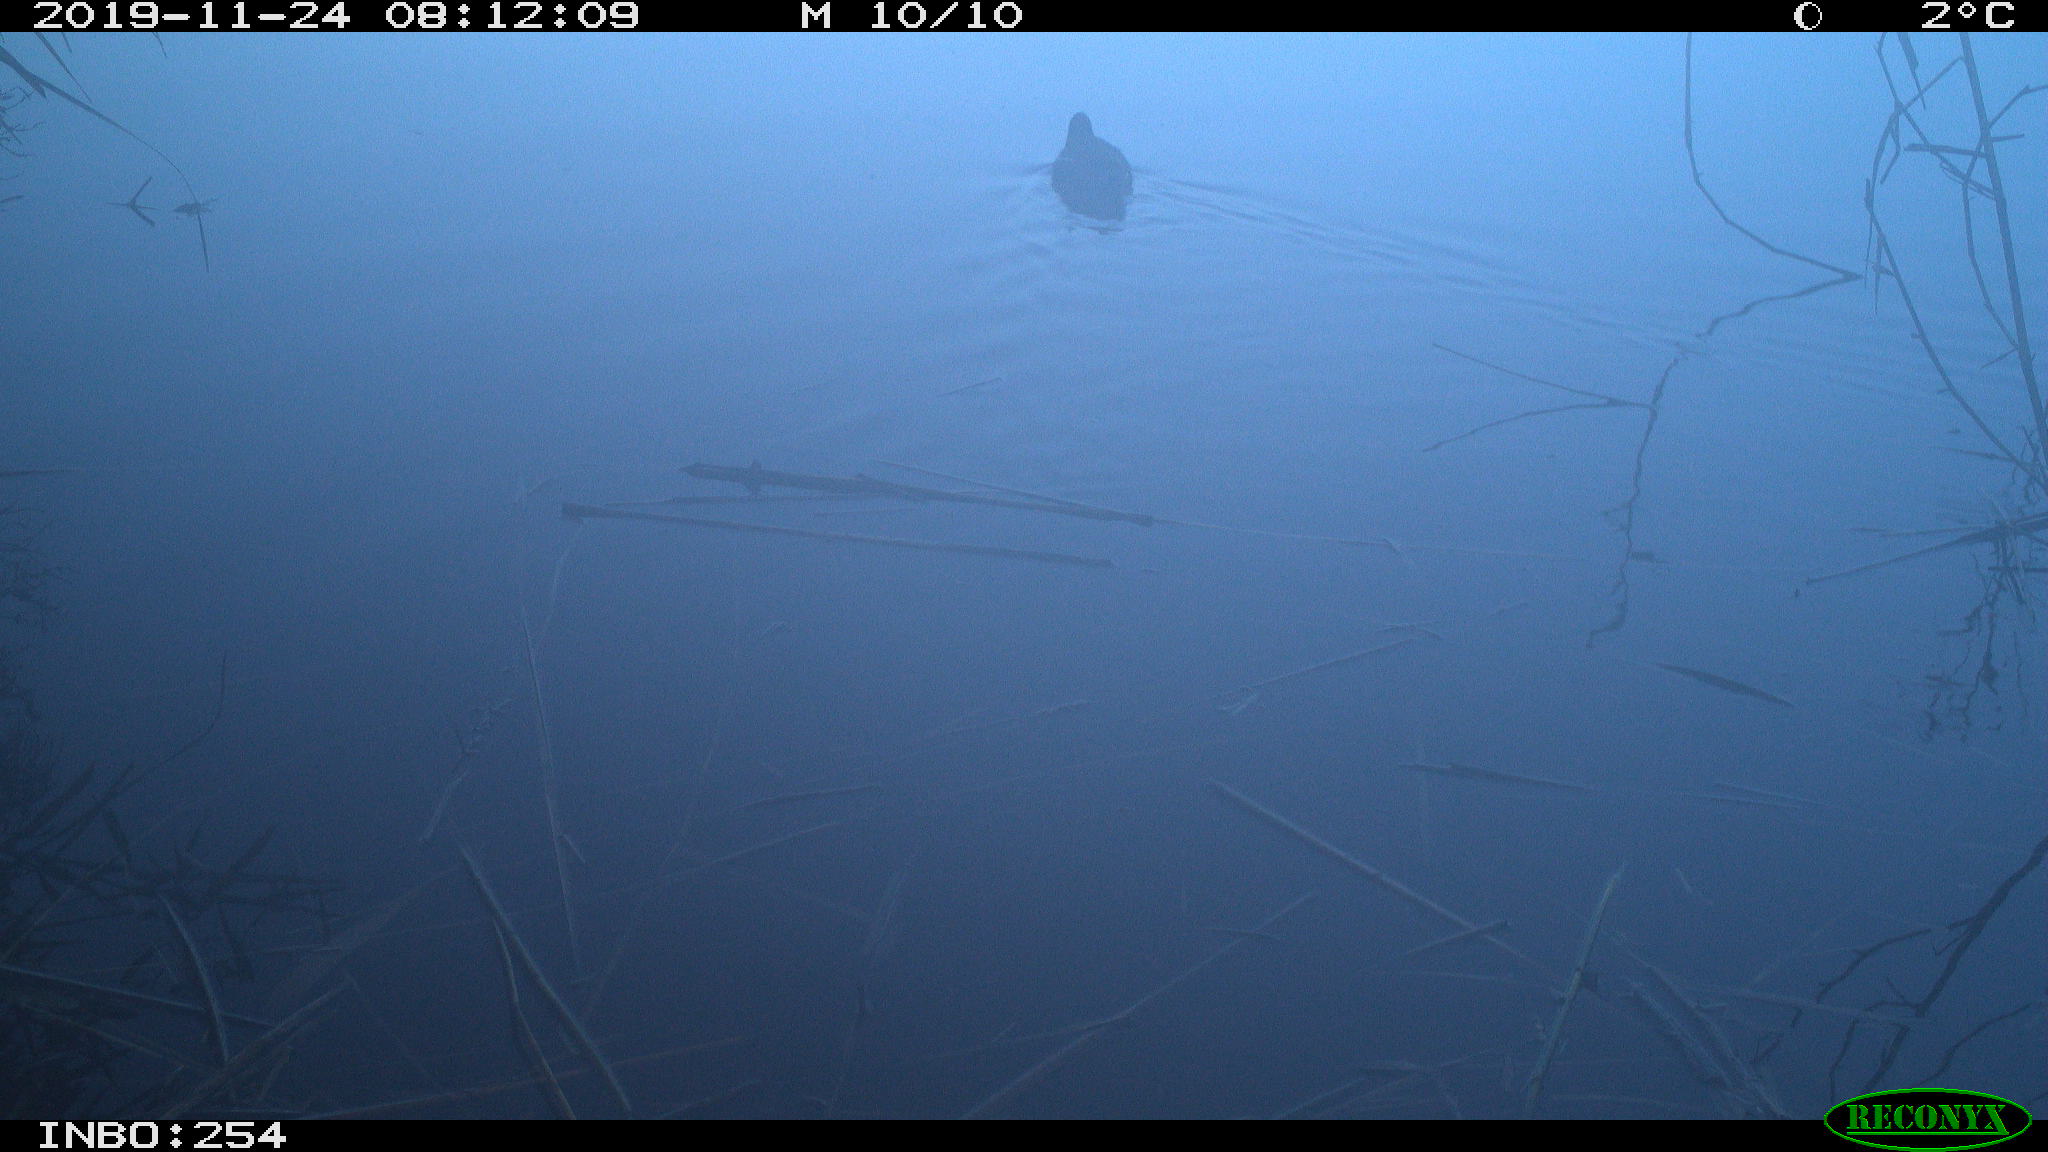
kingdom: Animalia
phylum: Chordata
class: Aves
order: Gruiformes
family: Rallidae
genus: Gallinula
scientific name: Gallinula chloropus
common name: Common moorhen
